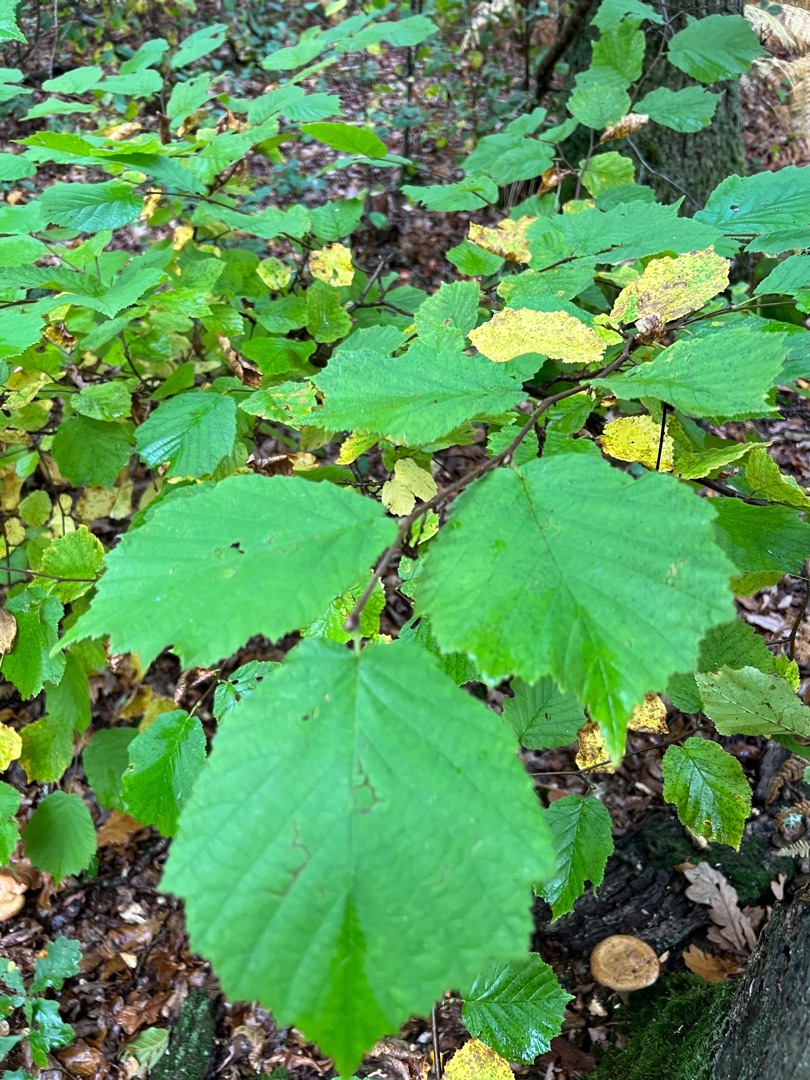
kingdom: Plantae
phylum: Tracheophyta
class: Magnoliopsida
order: Fagales
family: Betulaceae
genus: Corylus
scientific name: Corylus avellana
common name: Hassel
